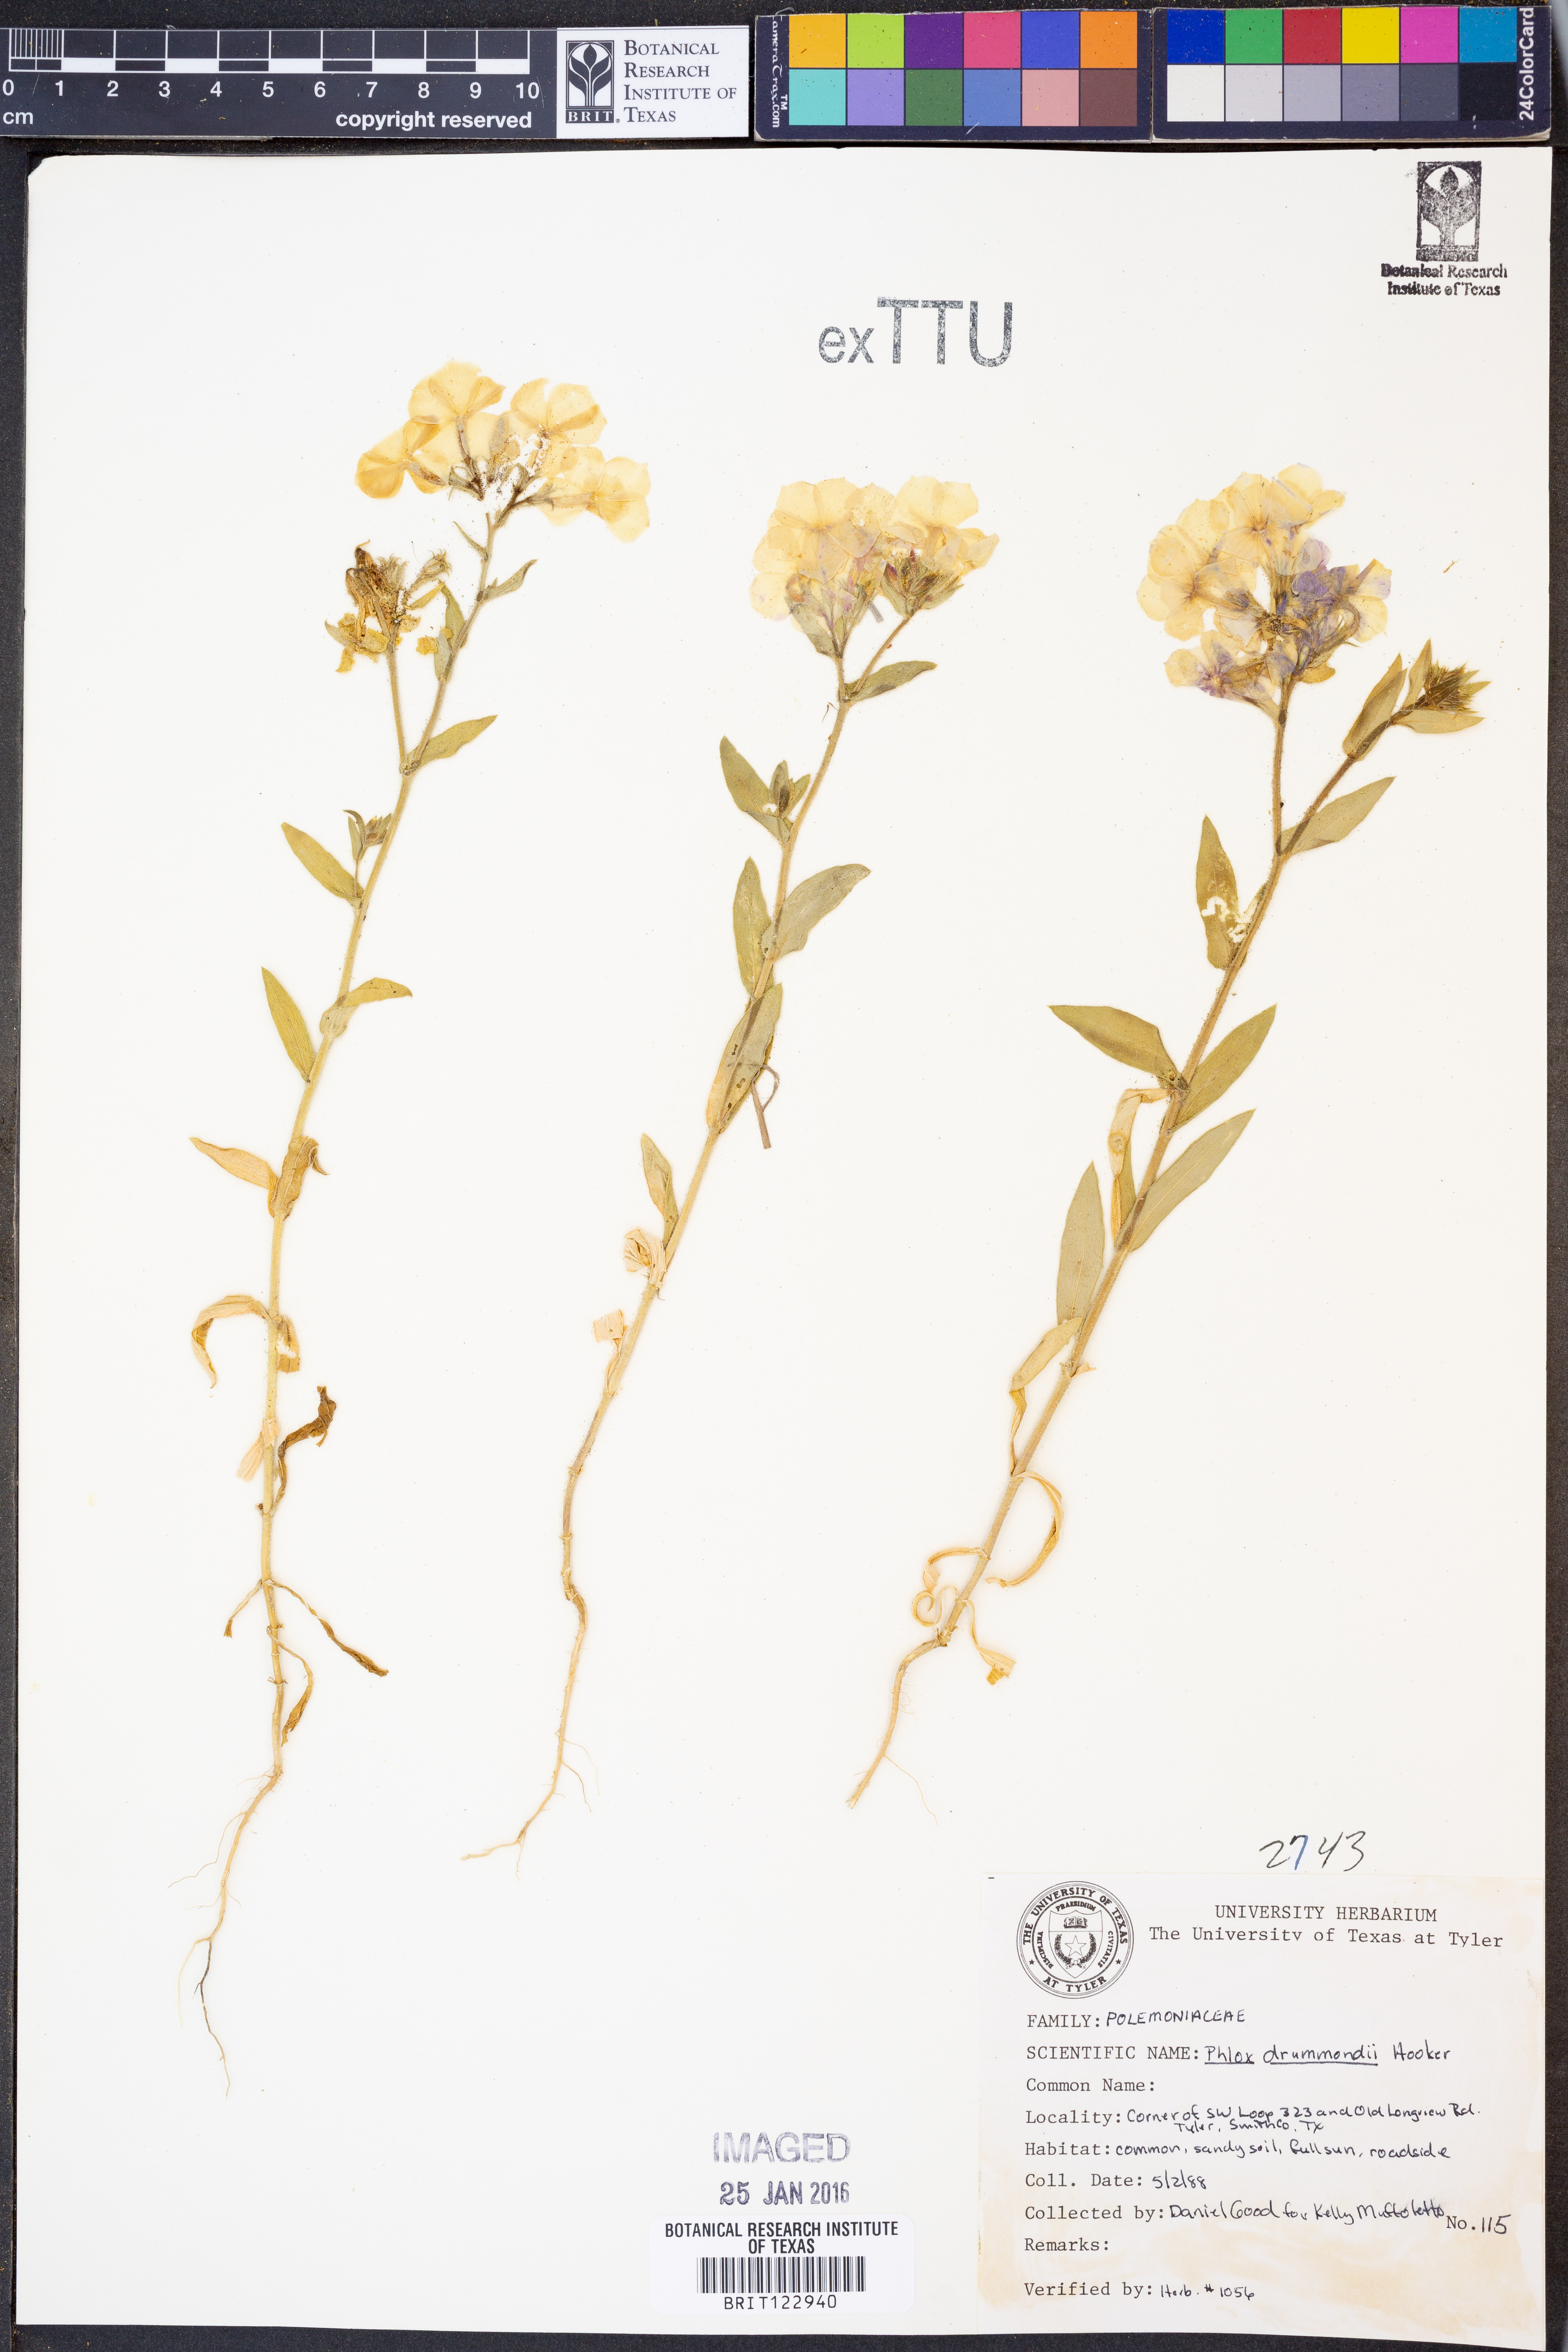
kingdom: Plantae
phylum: Tracheophyta
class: Magnoliopsida
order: Ericales
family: Polemoniaceae
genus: Phlox
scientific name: Phlox drummondii
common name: Drummond's phlox
